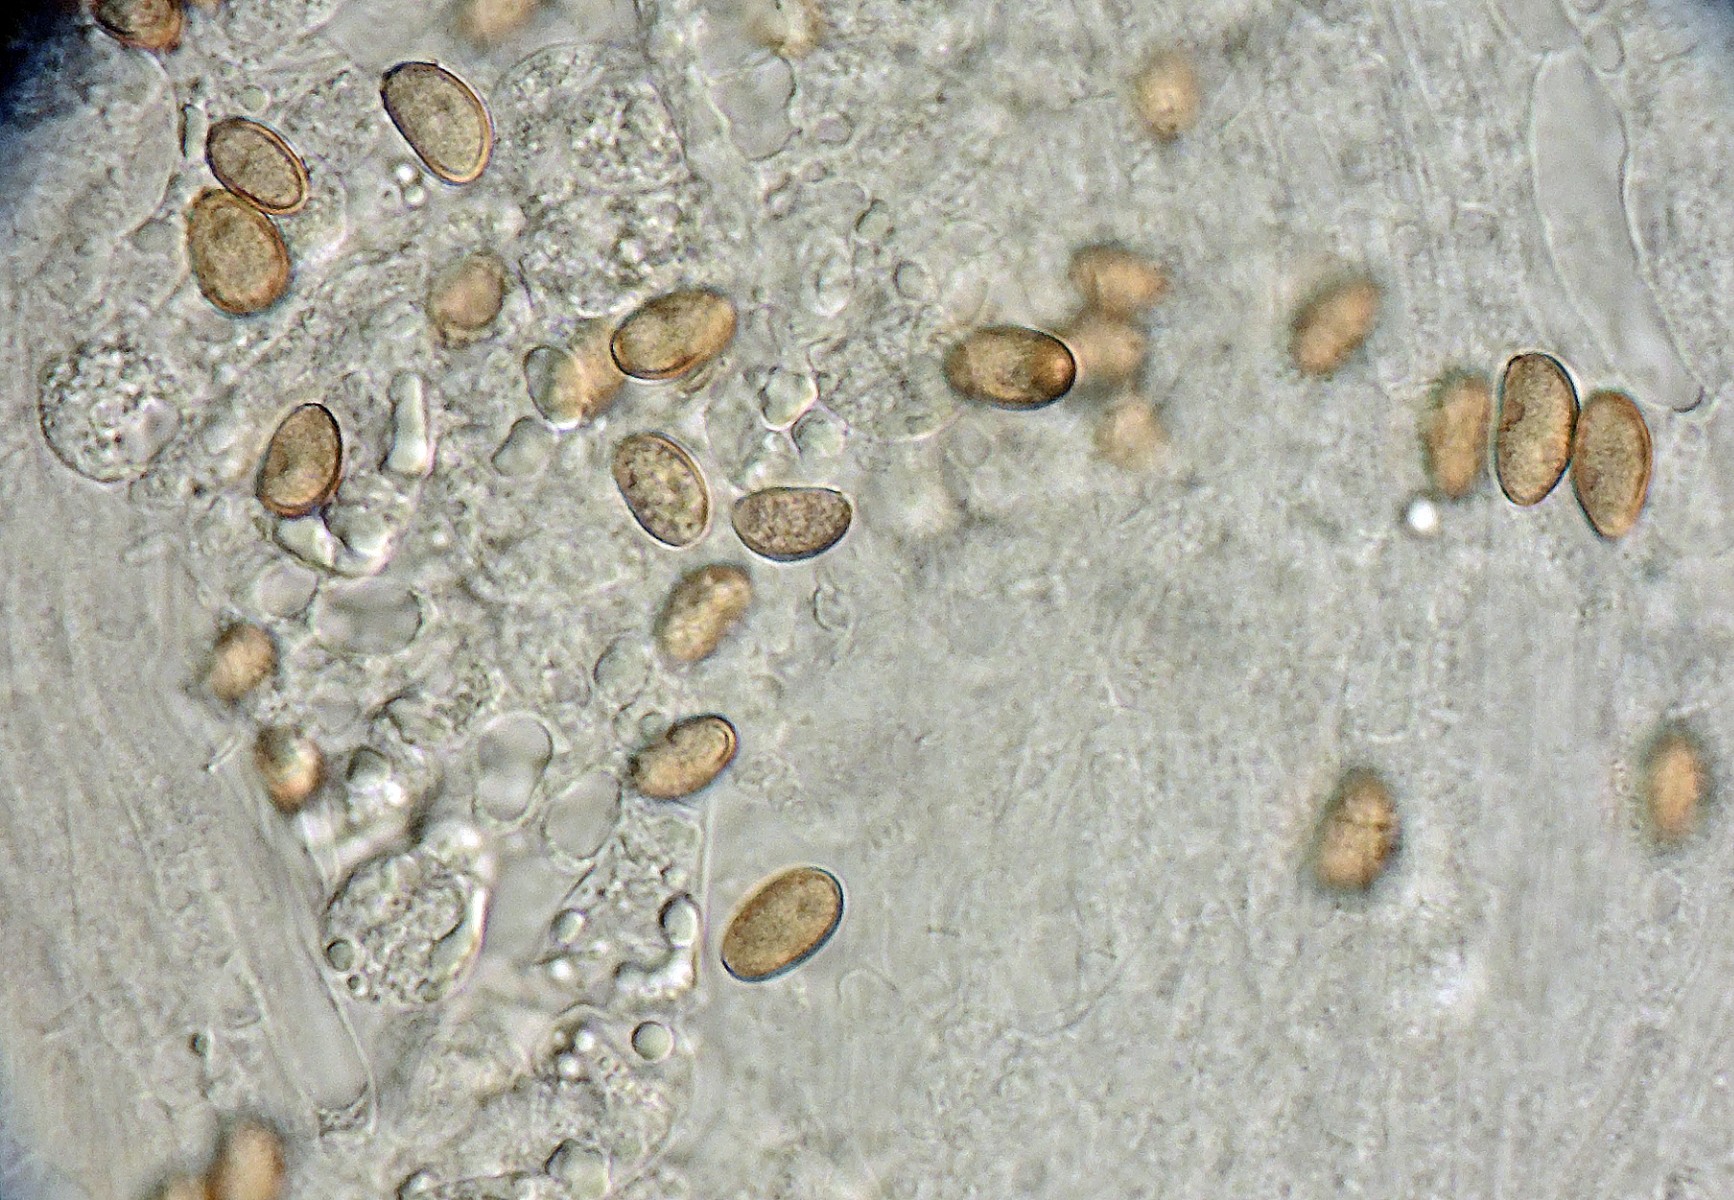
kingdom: Fungi
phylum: Basidiomycota
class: Agaricomycetes
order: Agaricales
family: Inocybaceae
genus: Pseudosperma
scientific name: Pseudosperma aureocitrinum
